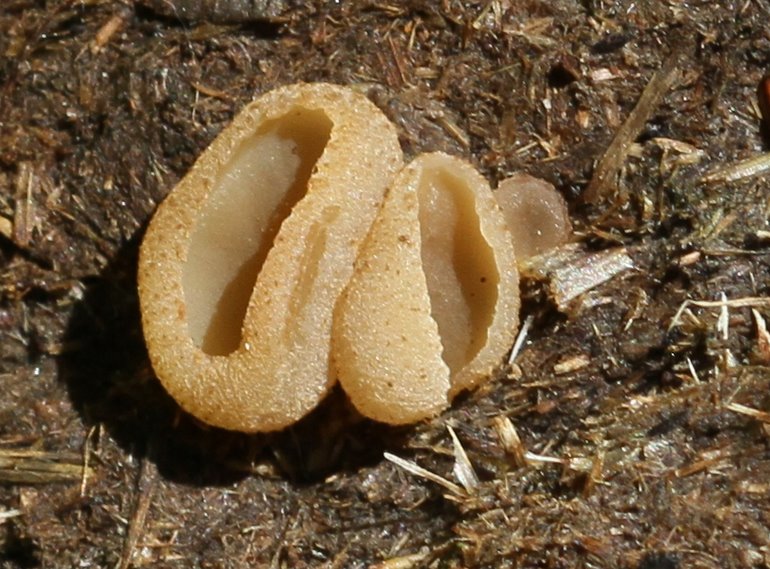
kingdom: Fungi
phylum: Ascomycota
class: Pezizomycetes
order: Pezizales
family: Pezizaceae
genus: Peziza
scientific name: Peziza vesiculosa
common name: blære-bægersvamp
